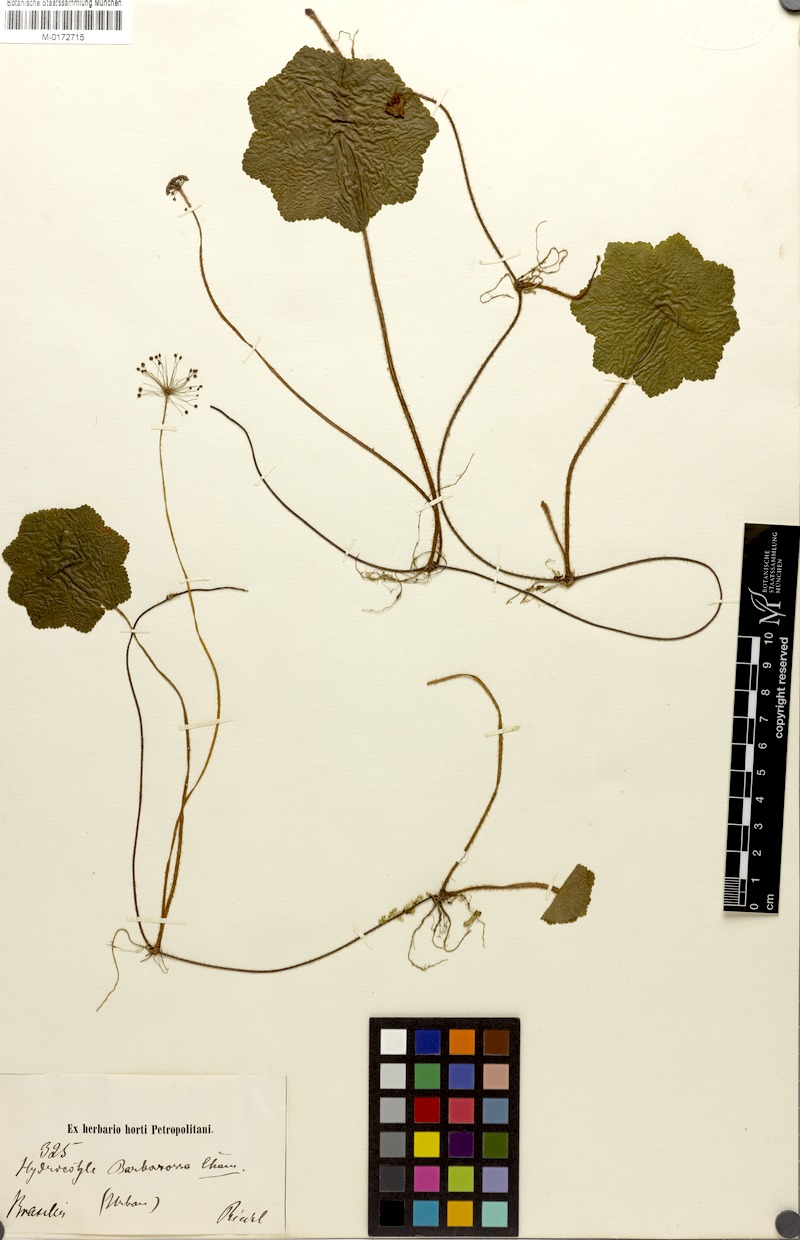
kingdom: Plantae
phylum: Tracheophyta
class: Magnoliopsida
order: Apiales
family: Araliaceae
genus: Hydrocotyle
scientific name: Hydrocotyle barbarossa
